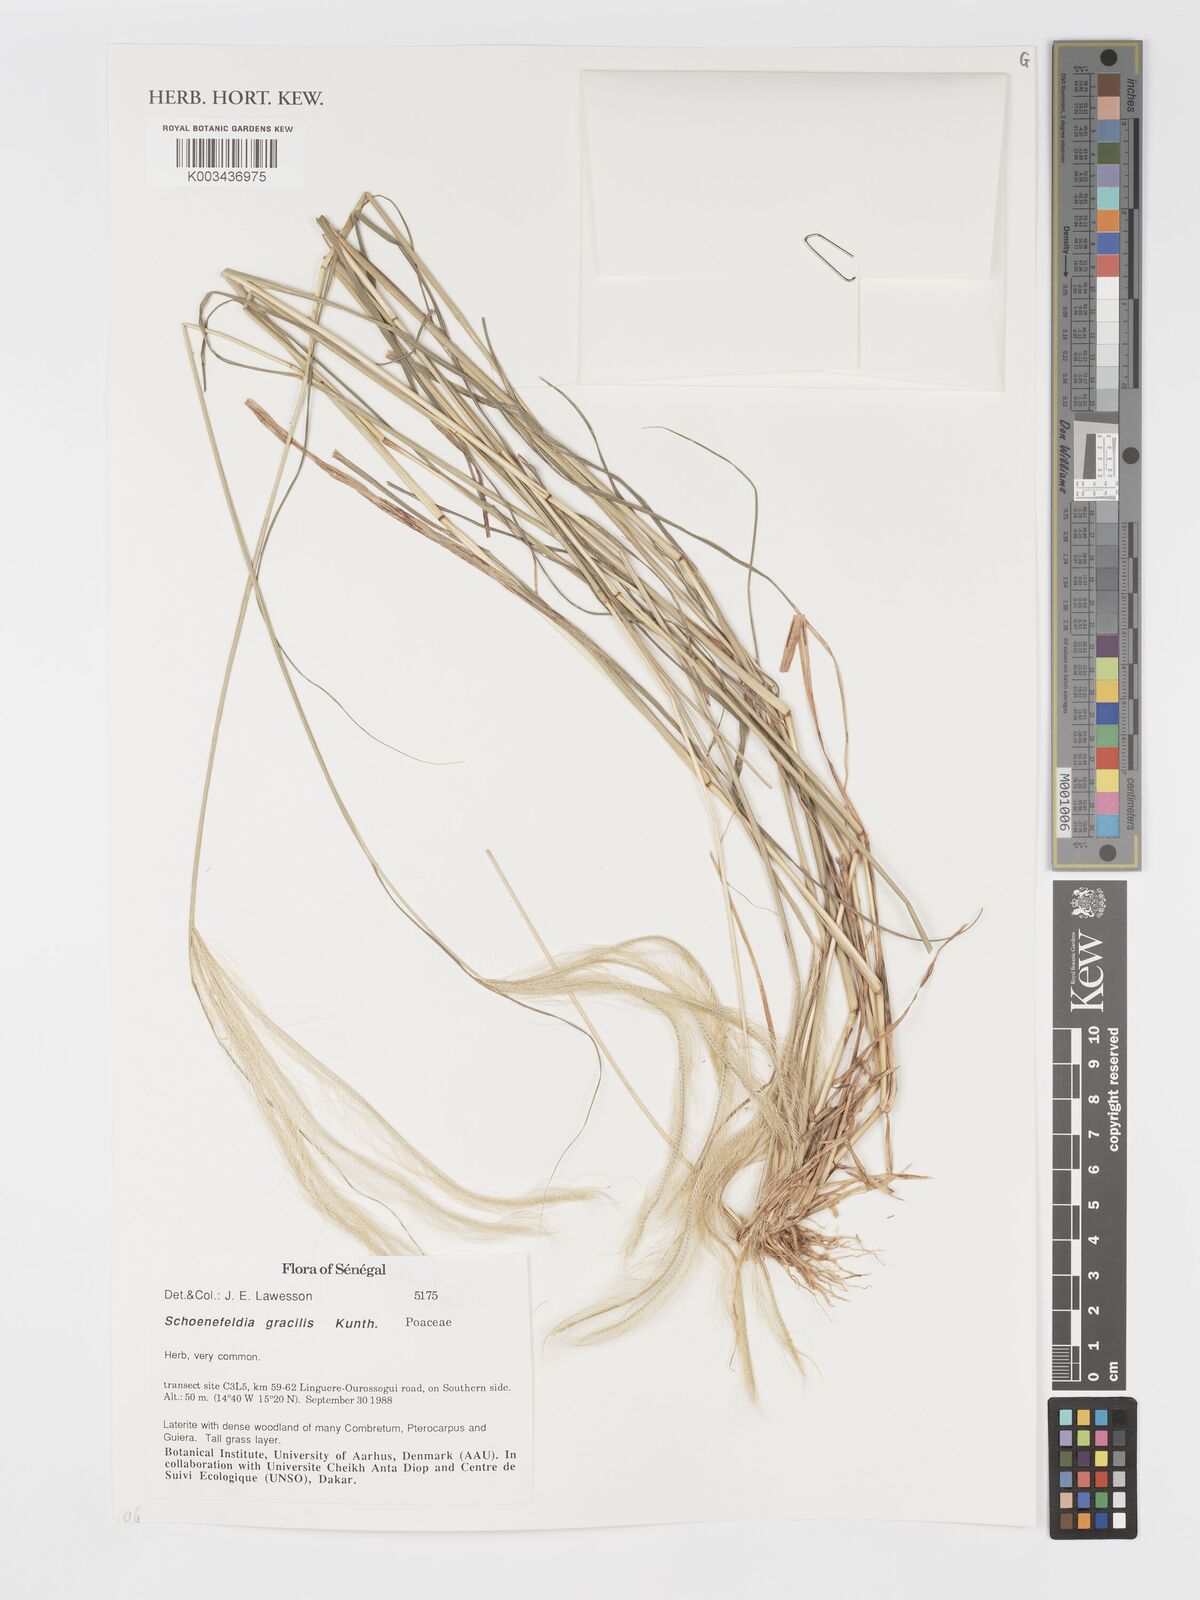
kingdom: Plantae
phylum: Tracheophyta
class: Liliopsida
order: Poales
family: Poaceae
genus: Schoenefeldia
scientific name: Schoenefeldia gracilis
